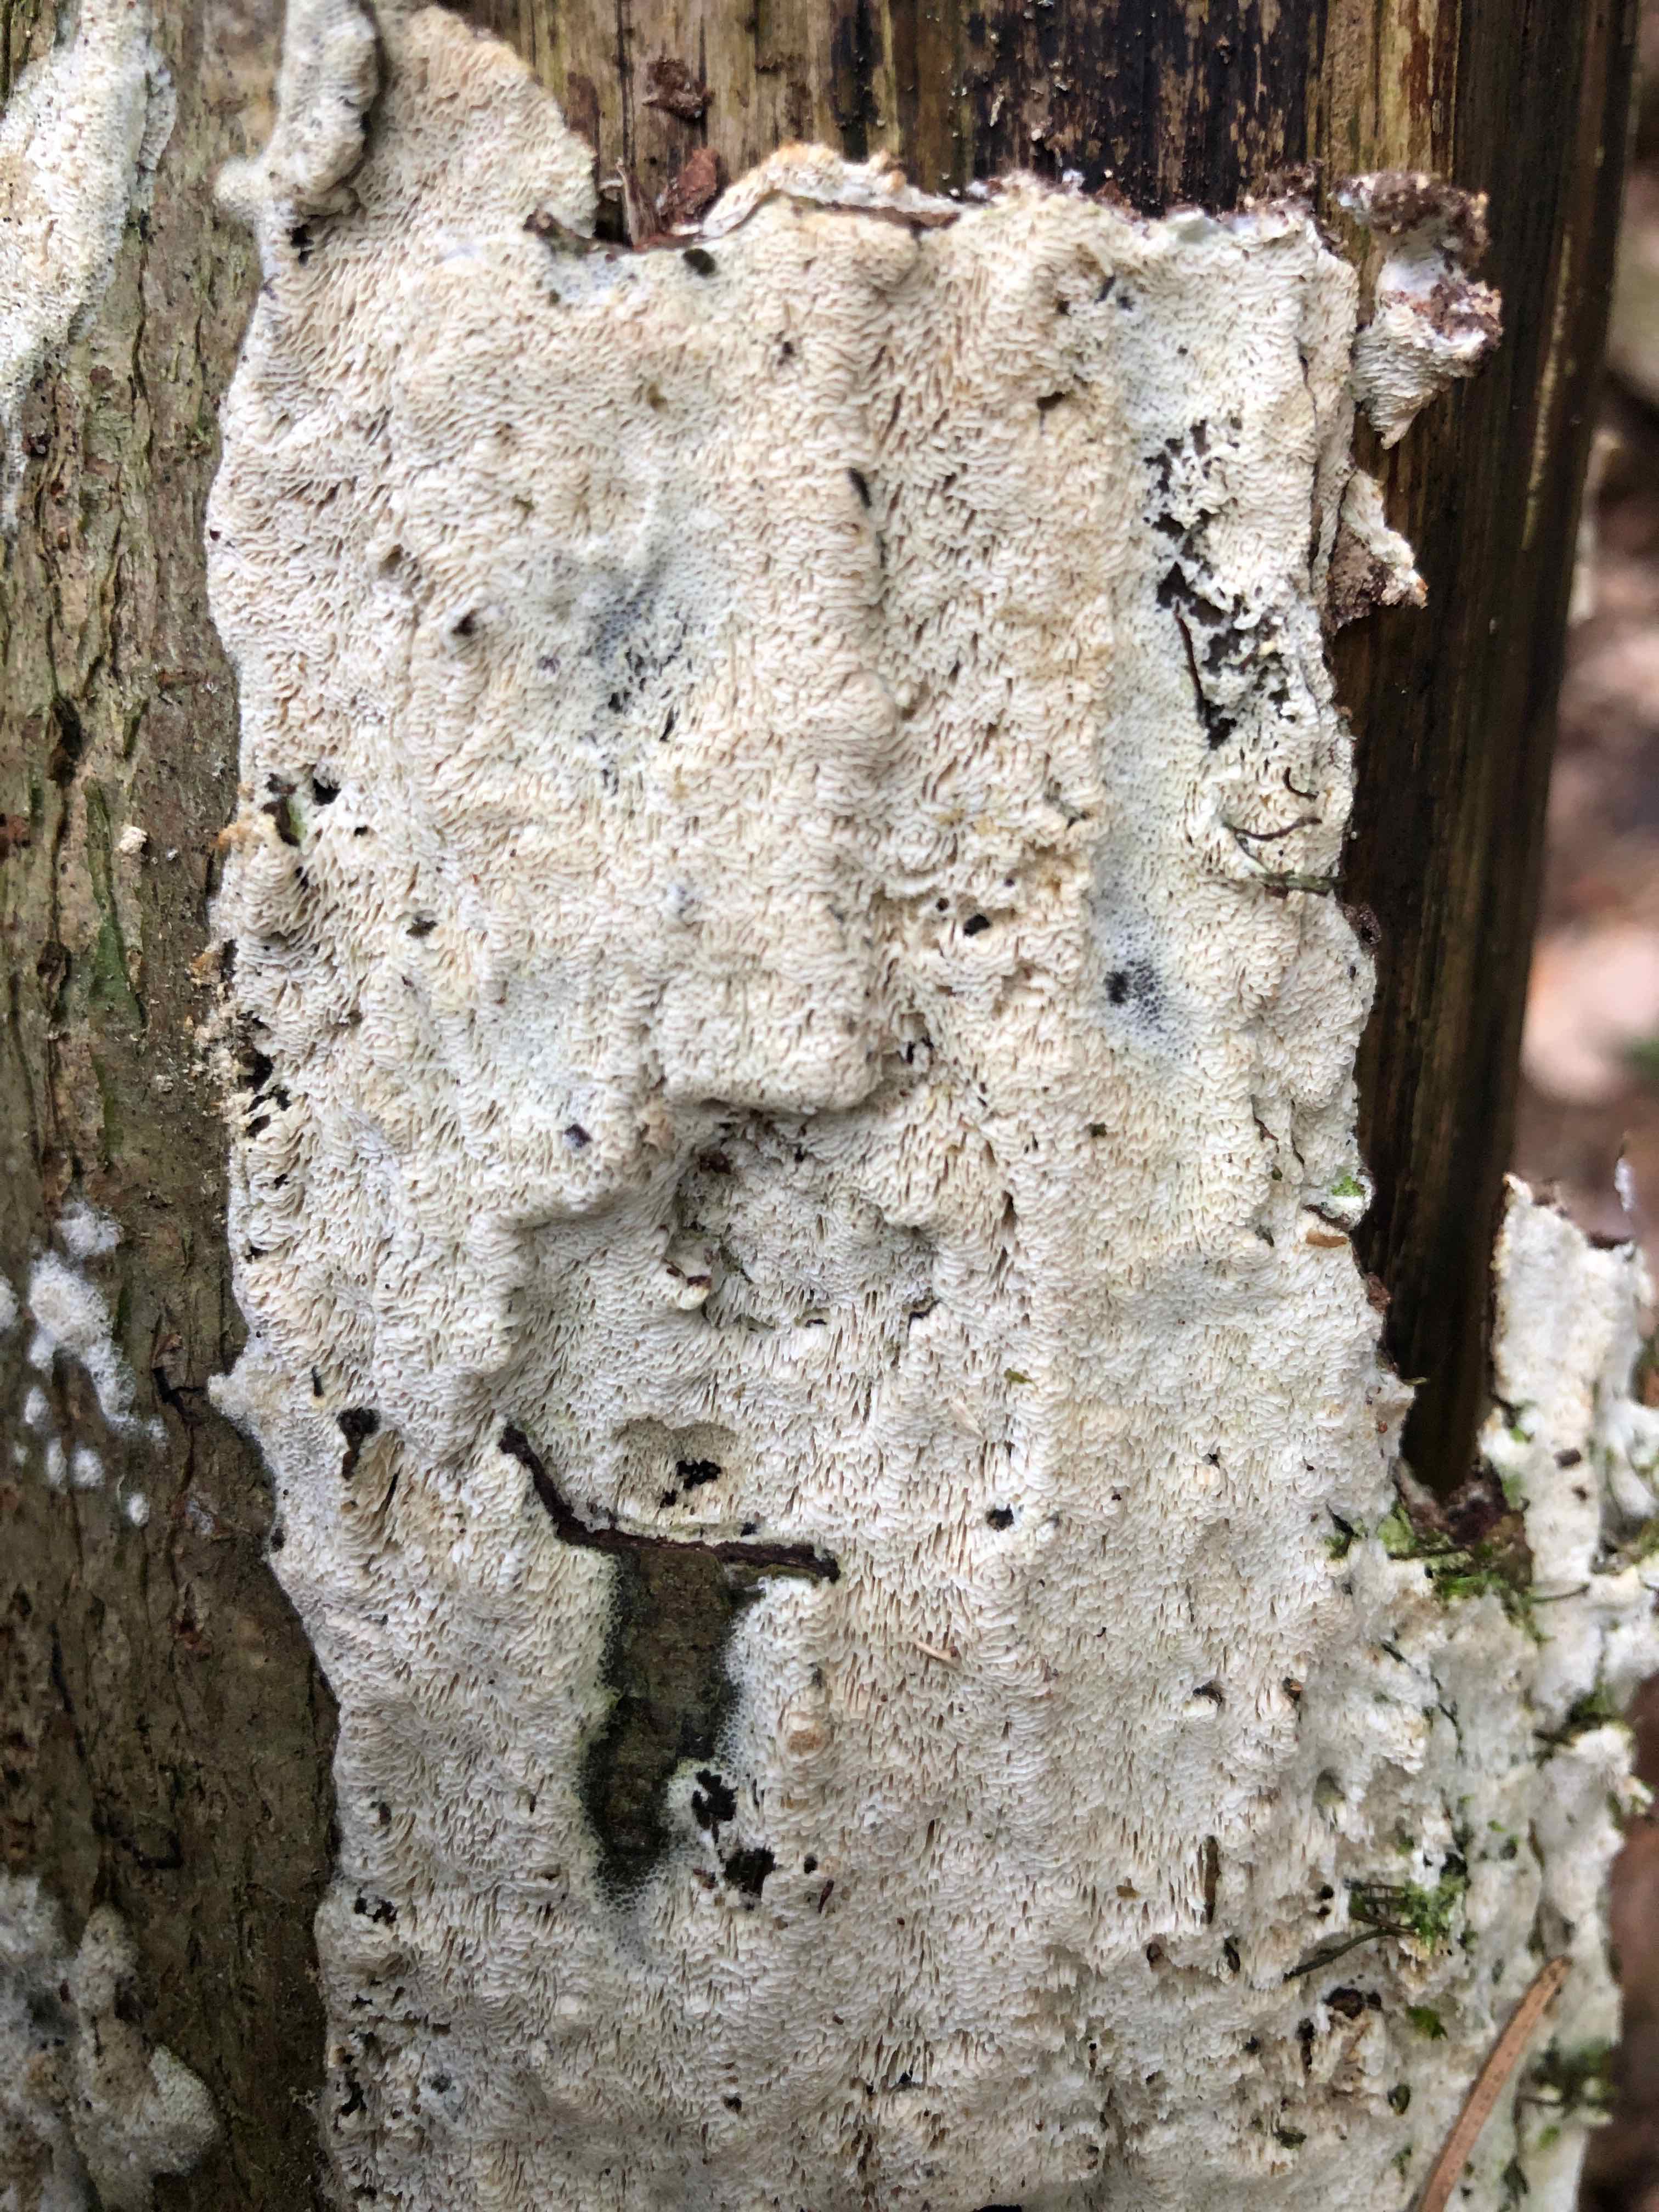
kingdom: Fungi
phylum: Basidiomycota
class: Agaricomycetes
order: Hymenochaetales
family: Schizoporaceae
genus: Xylodon
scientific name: Xylodon subtropicus
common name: labyrint-tandsvamp
